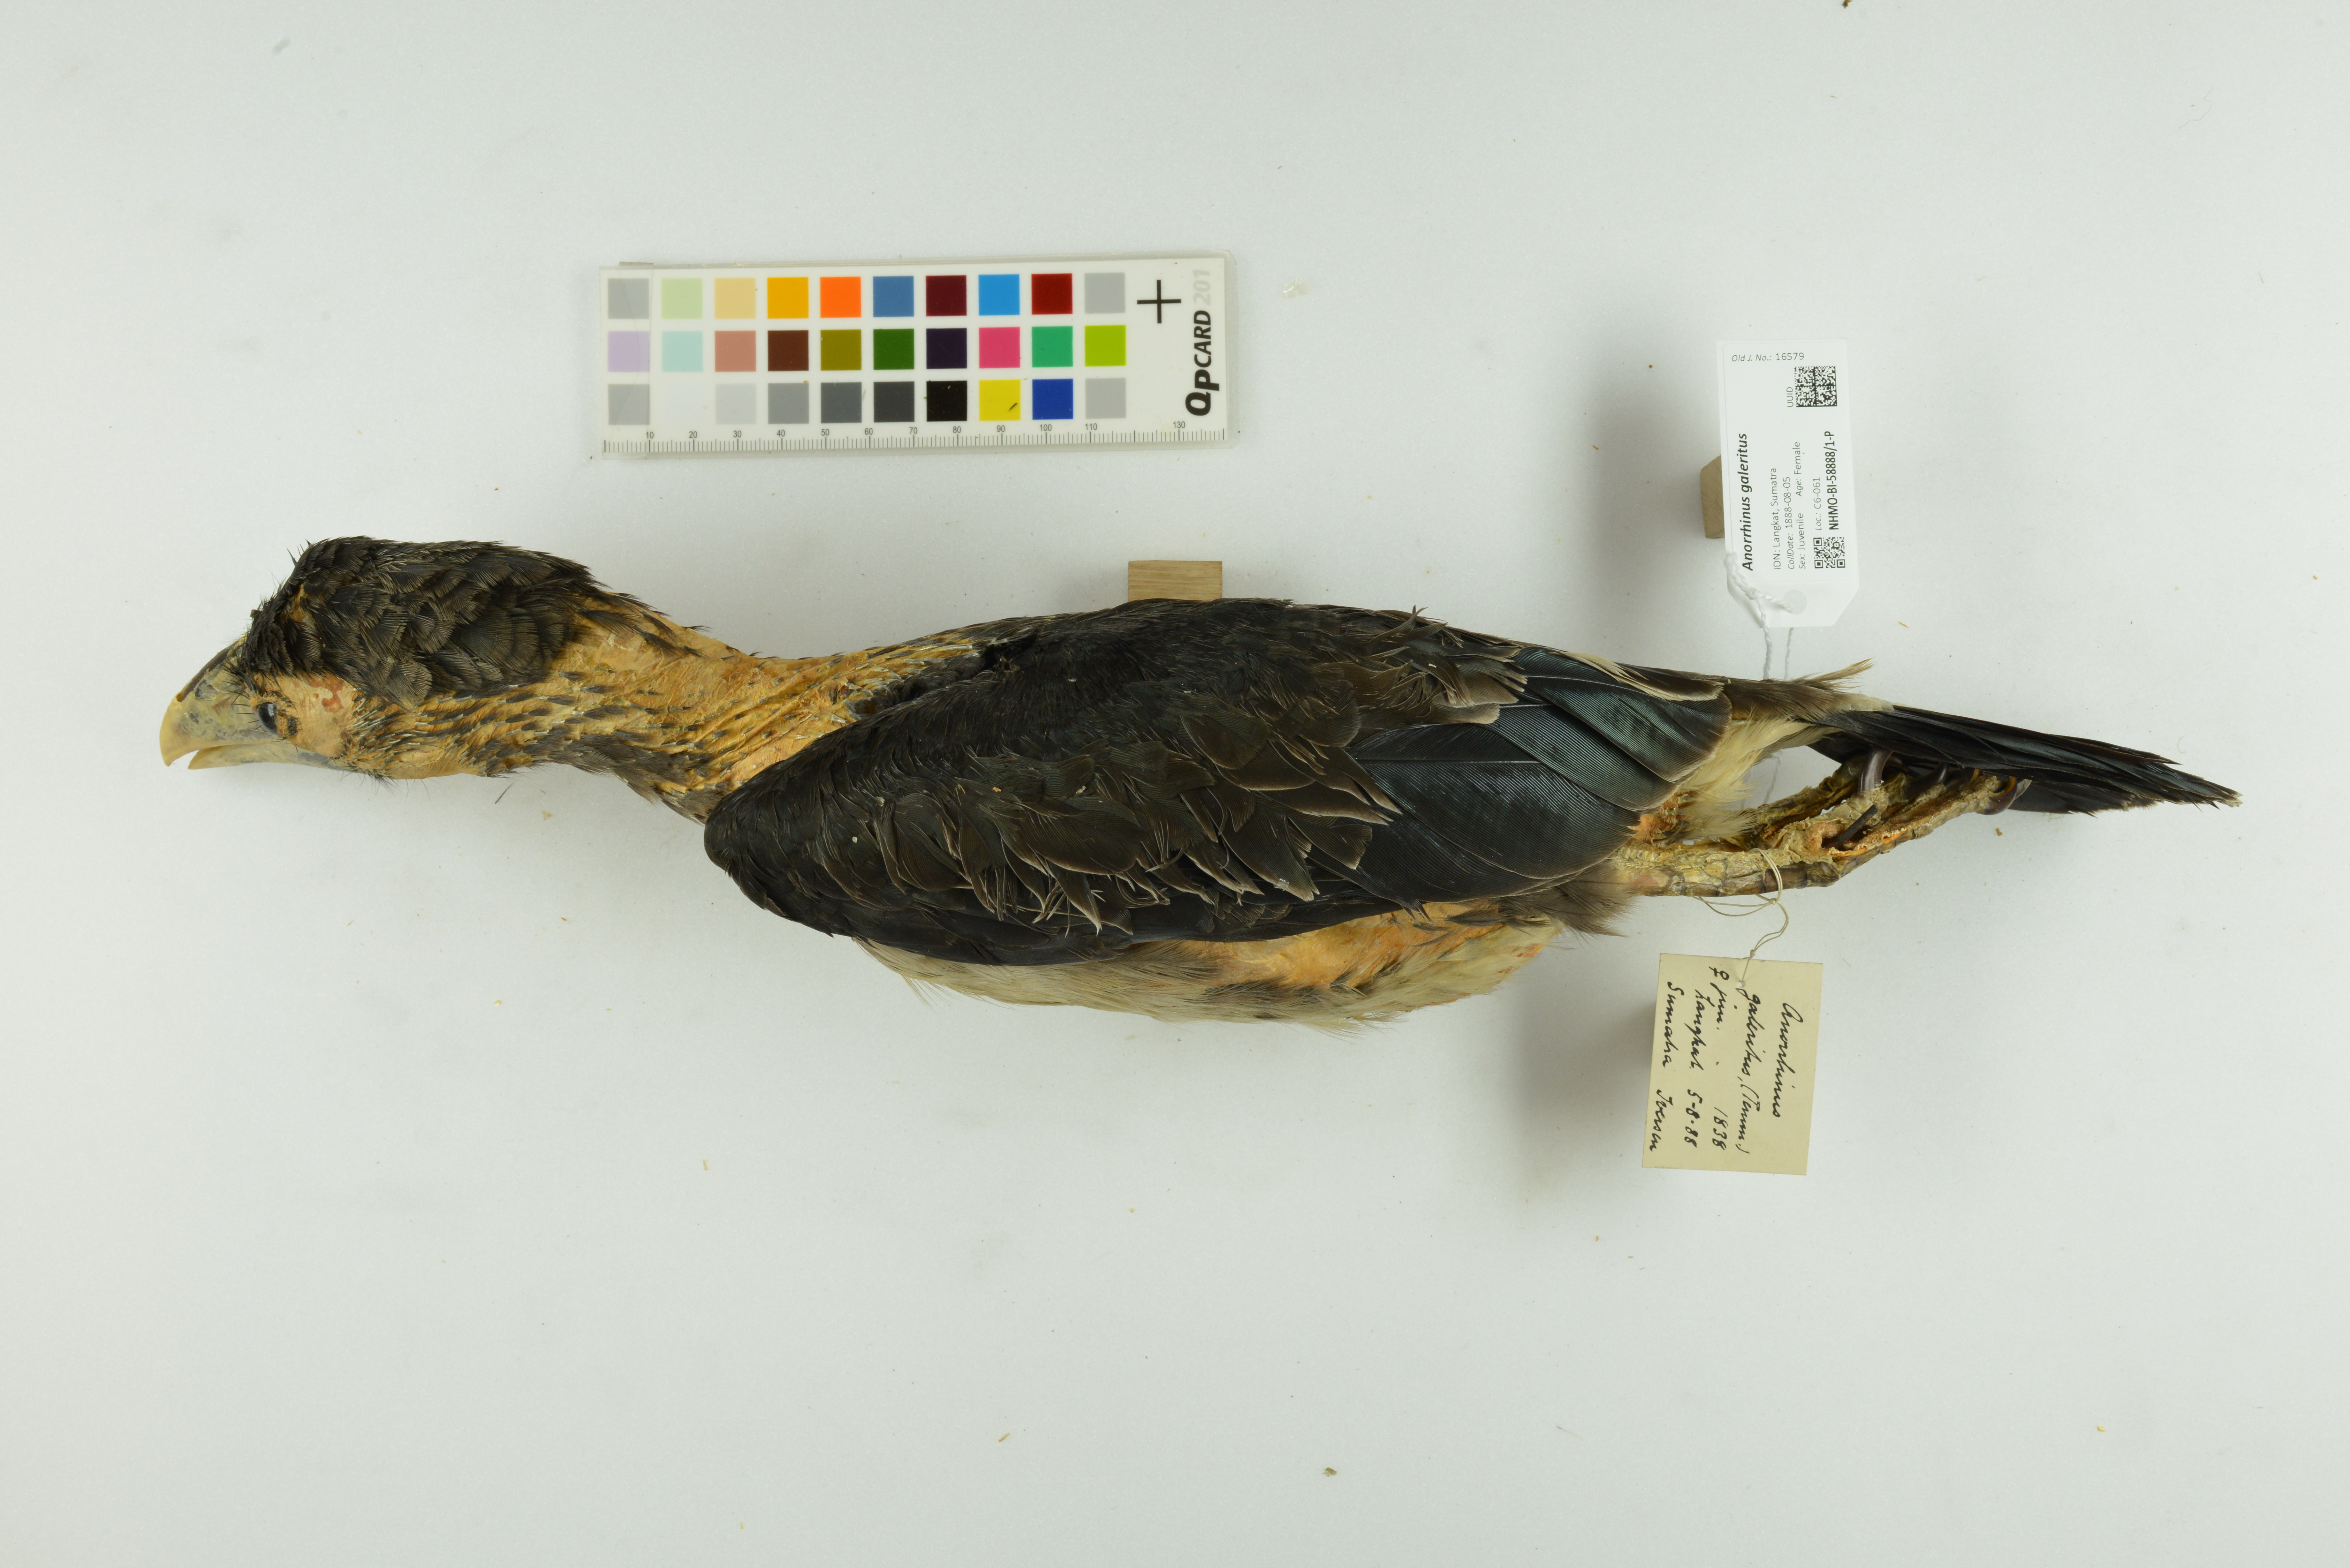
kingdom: Animalia
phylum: Chordata
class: Aves
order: Bucerotiformes
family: Bucerotidae
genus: Anorrhinus
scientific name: Anorrhinus galeritus
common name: Bushy-crested hornbill
